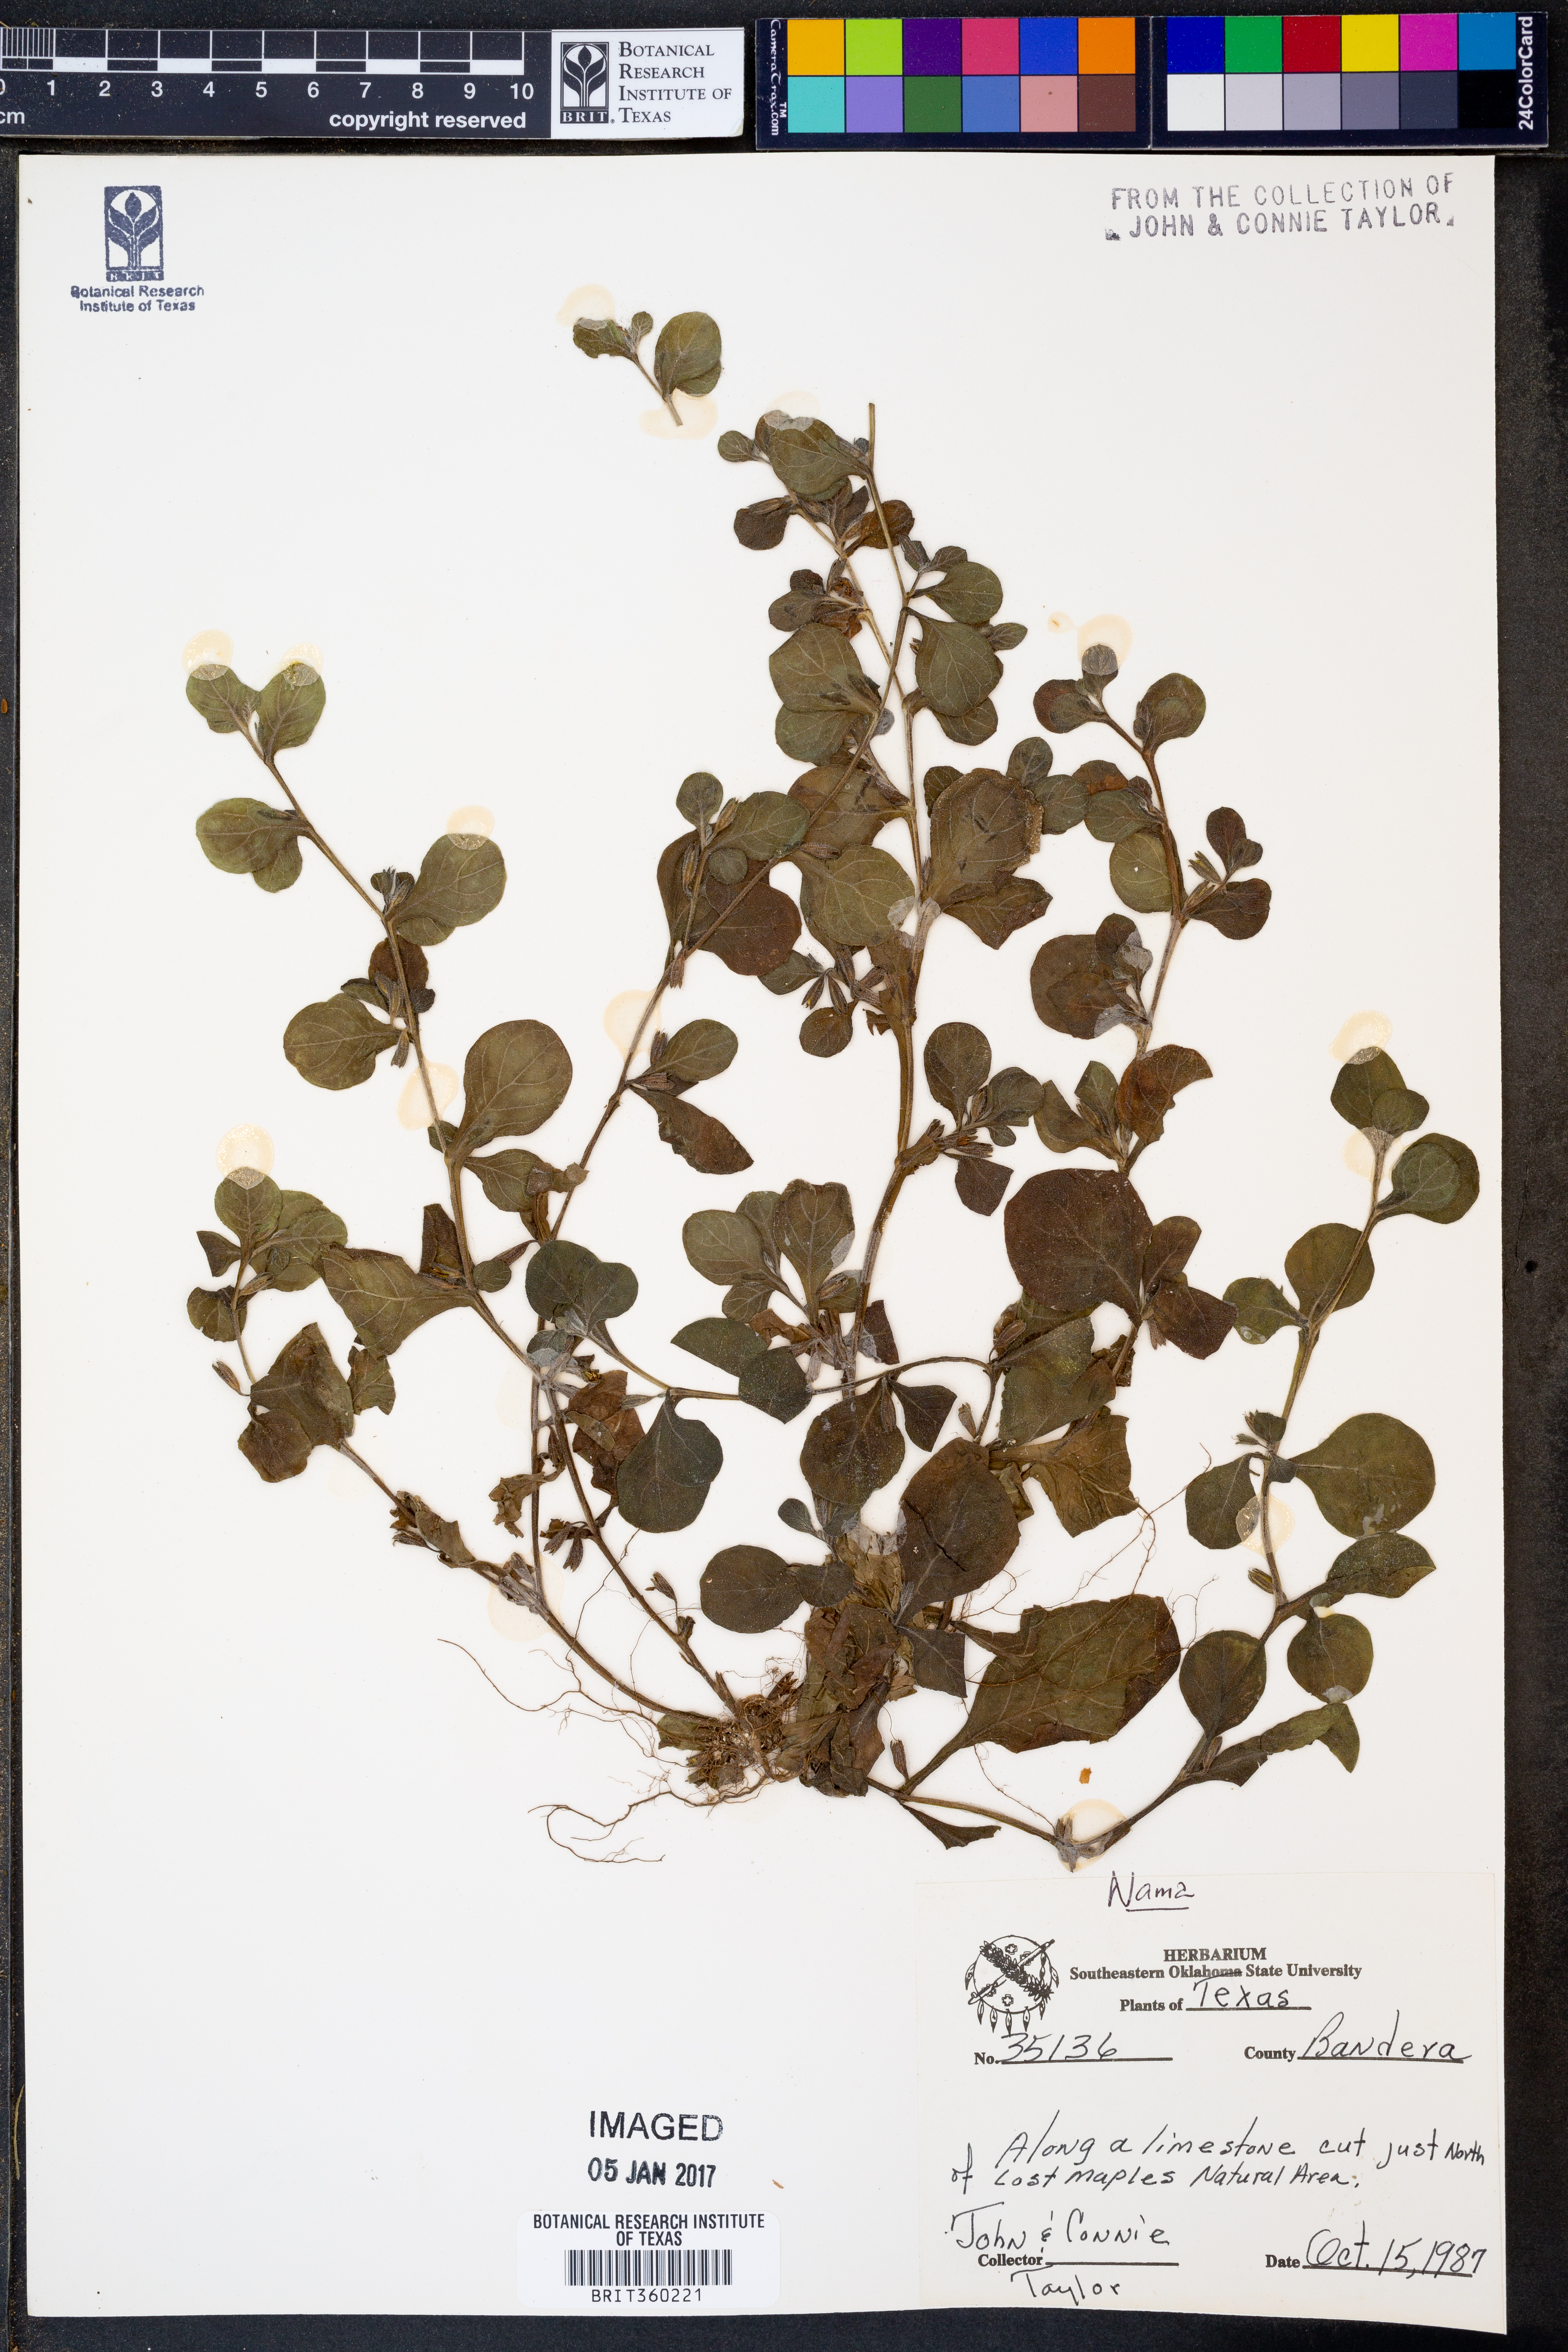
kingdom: Plantae
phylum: Tracheophyta
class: Magnoliopsida
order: Boraginales
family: Namaceae
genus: Nama
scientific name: Nama
